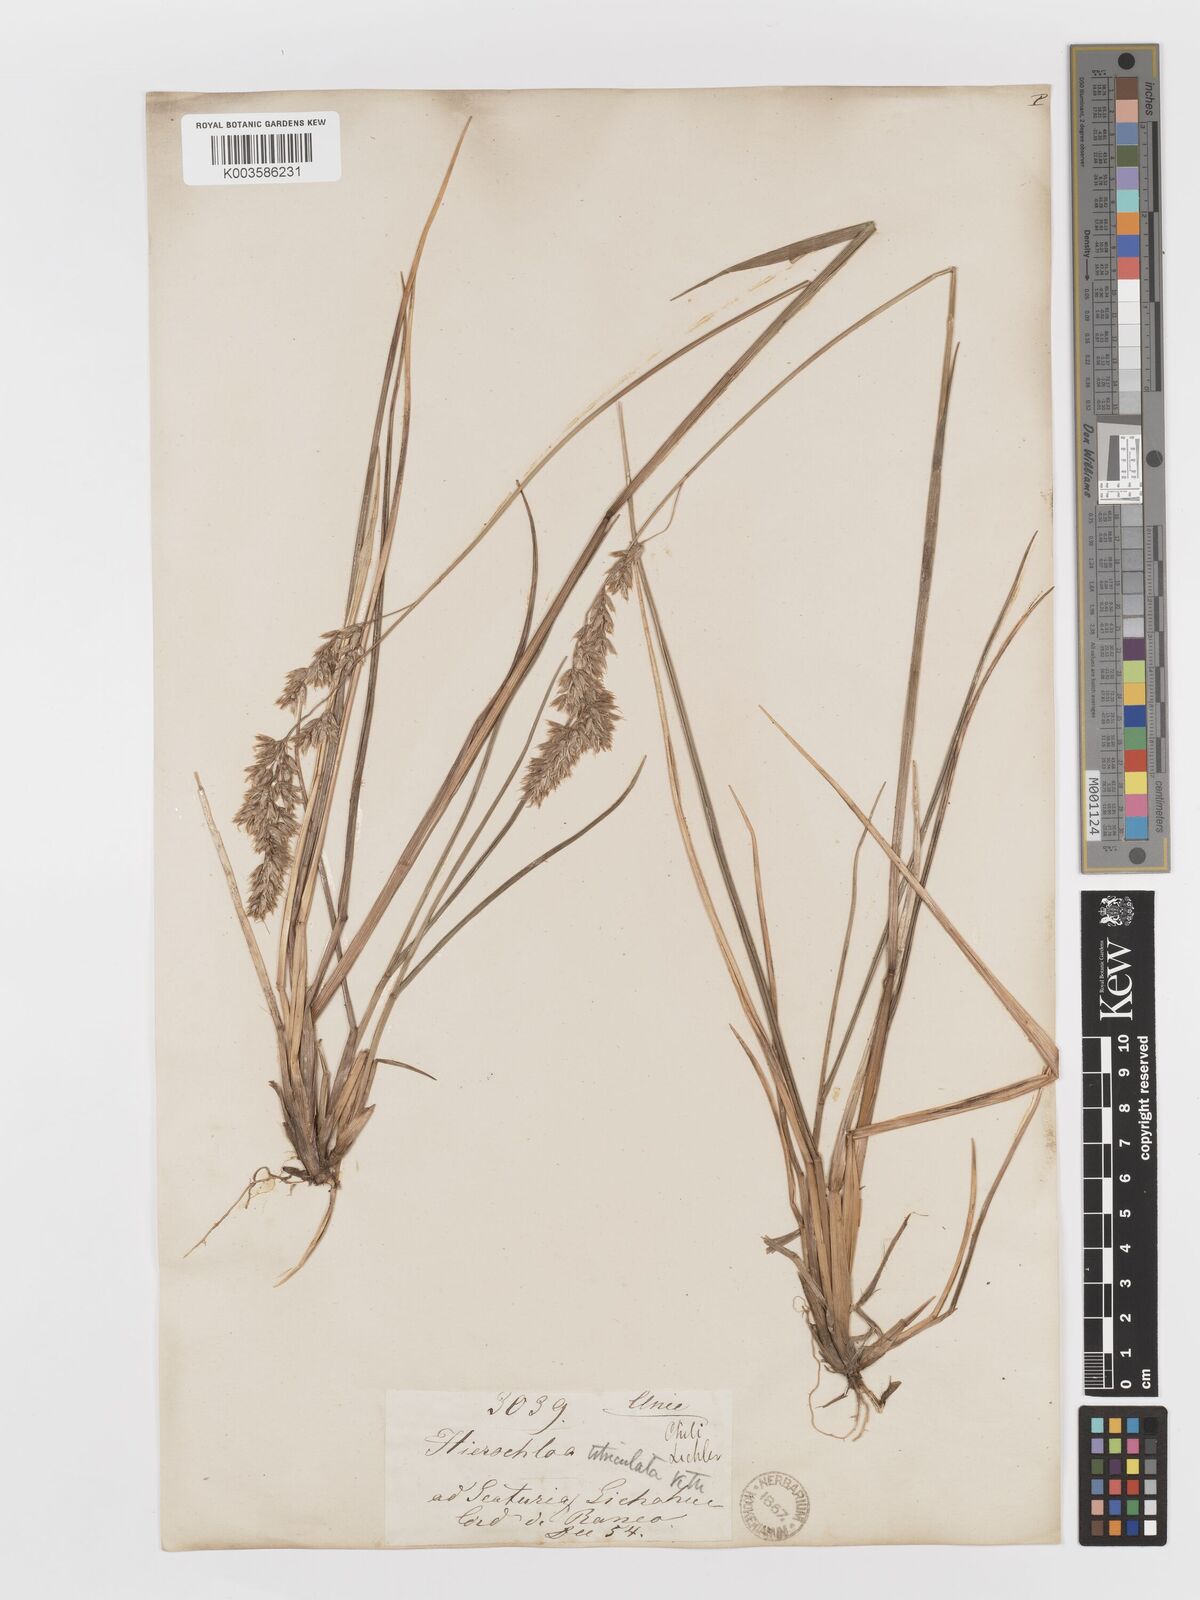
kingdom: Plantae
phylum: Tracheophyta
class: Liliopsida
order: Poales
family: Poaceae
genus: Anthoxanthum
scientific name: Anthoxanthum redolens
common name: Sweet holy grass
